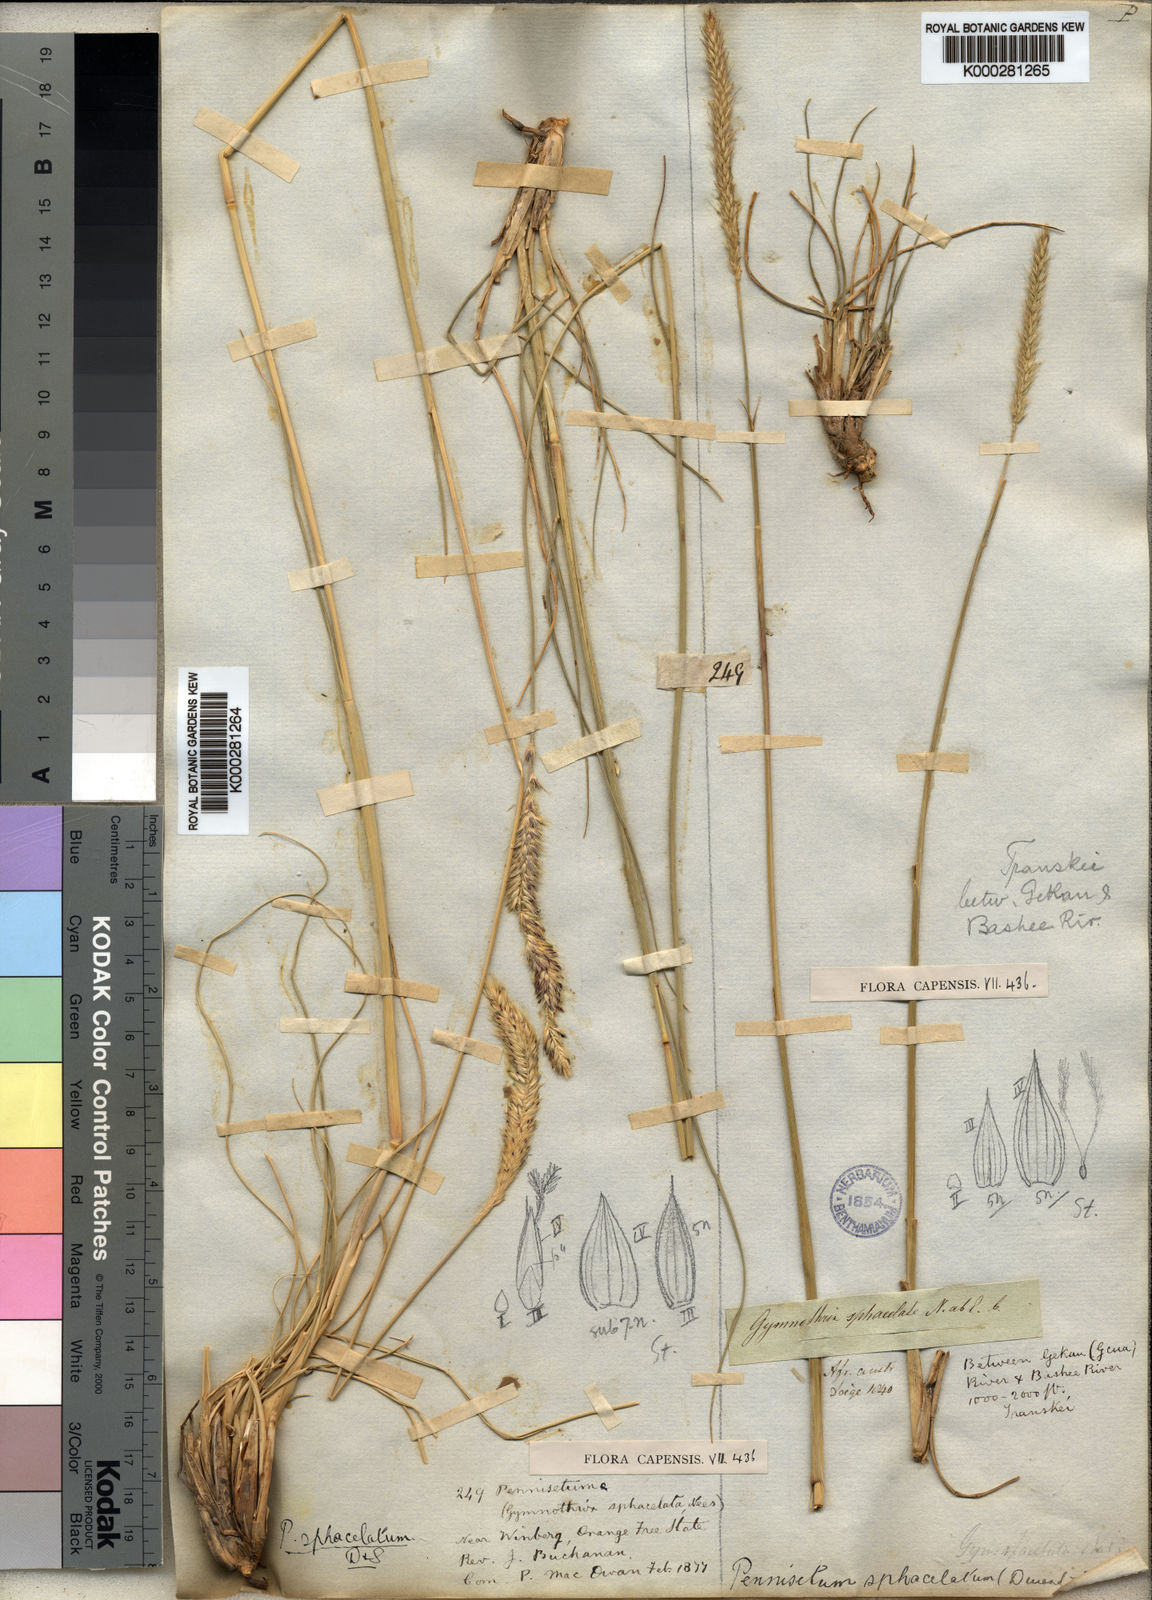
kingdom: Plantae
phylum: Tracheophyta
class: Liliopsida
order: Poales
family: Poaceae
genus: Cenchrus
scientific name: Cenchrus sphacelatus
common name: Bulgras
